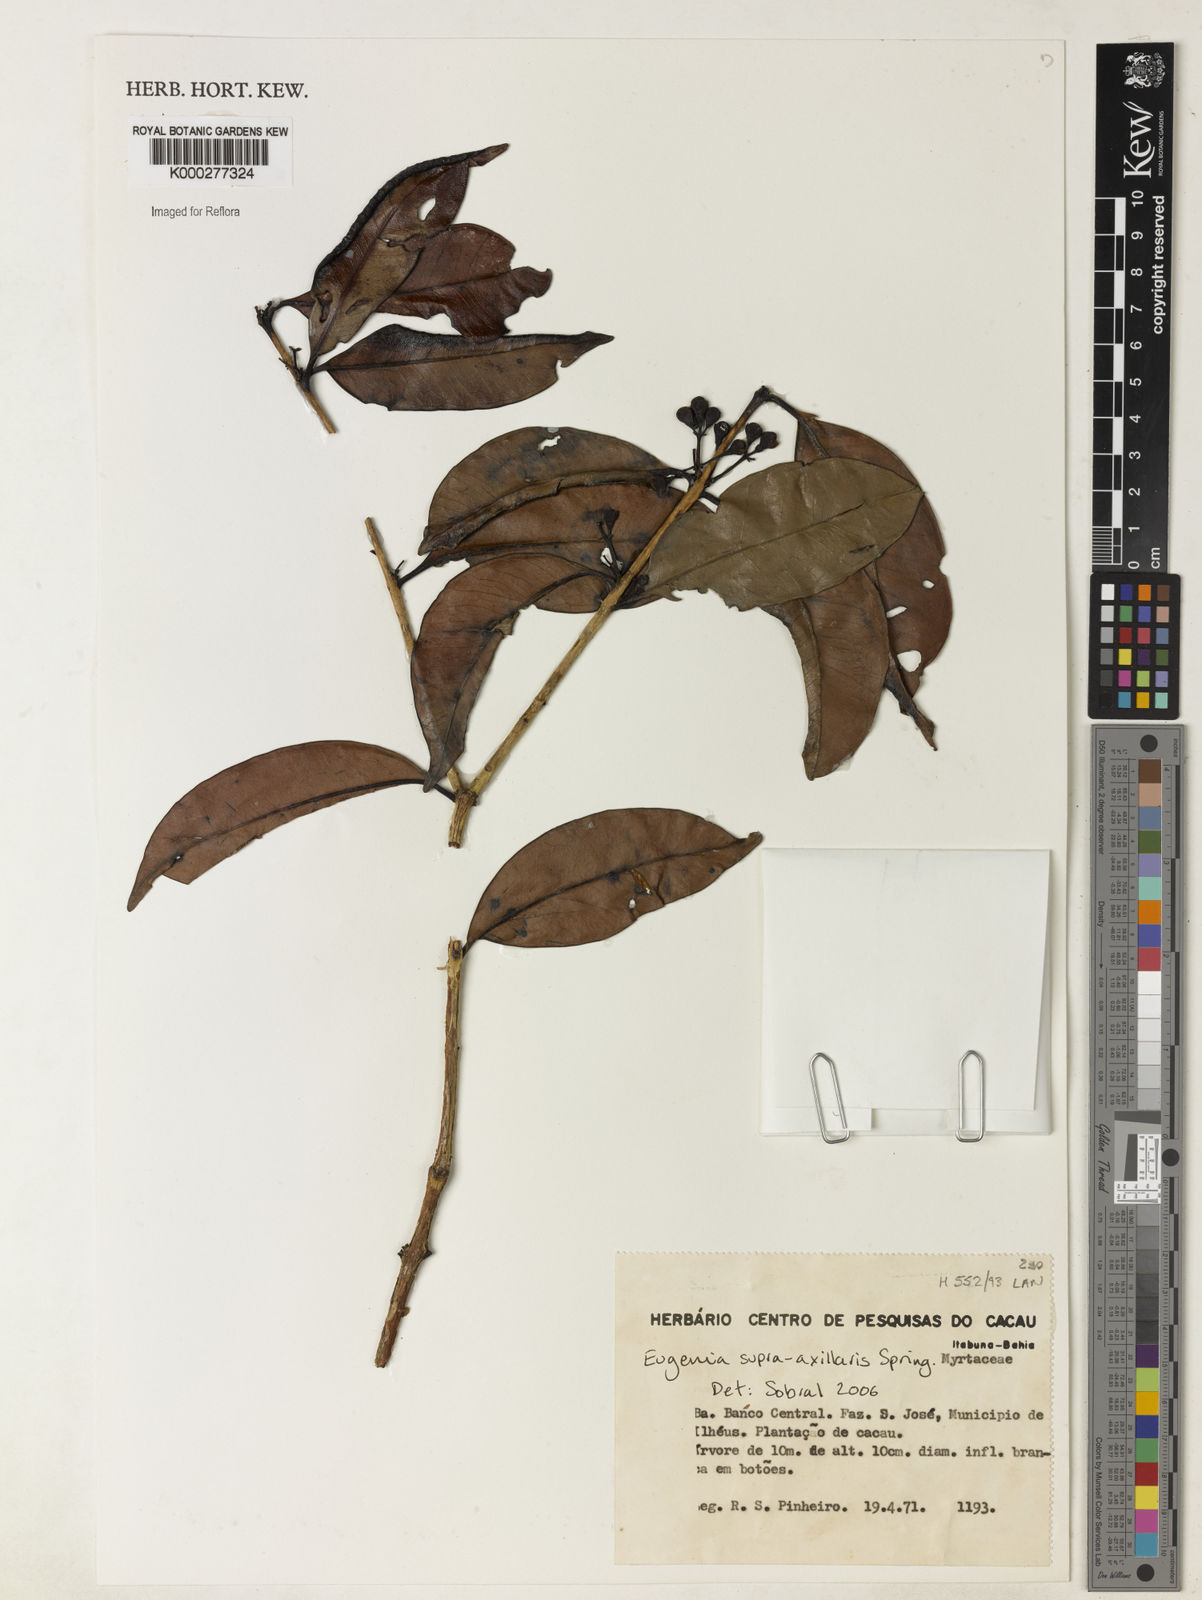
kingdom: Plantae
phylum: Tracheophyta
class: Magnoliopsida
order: Myrtales
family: Myrtaceae
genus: Eugenia
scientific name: Eugenia supraaxillaris
